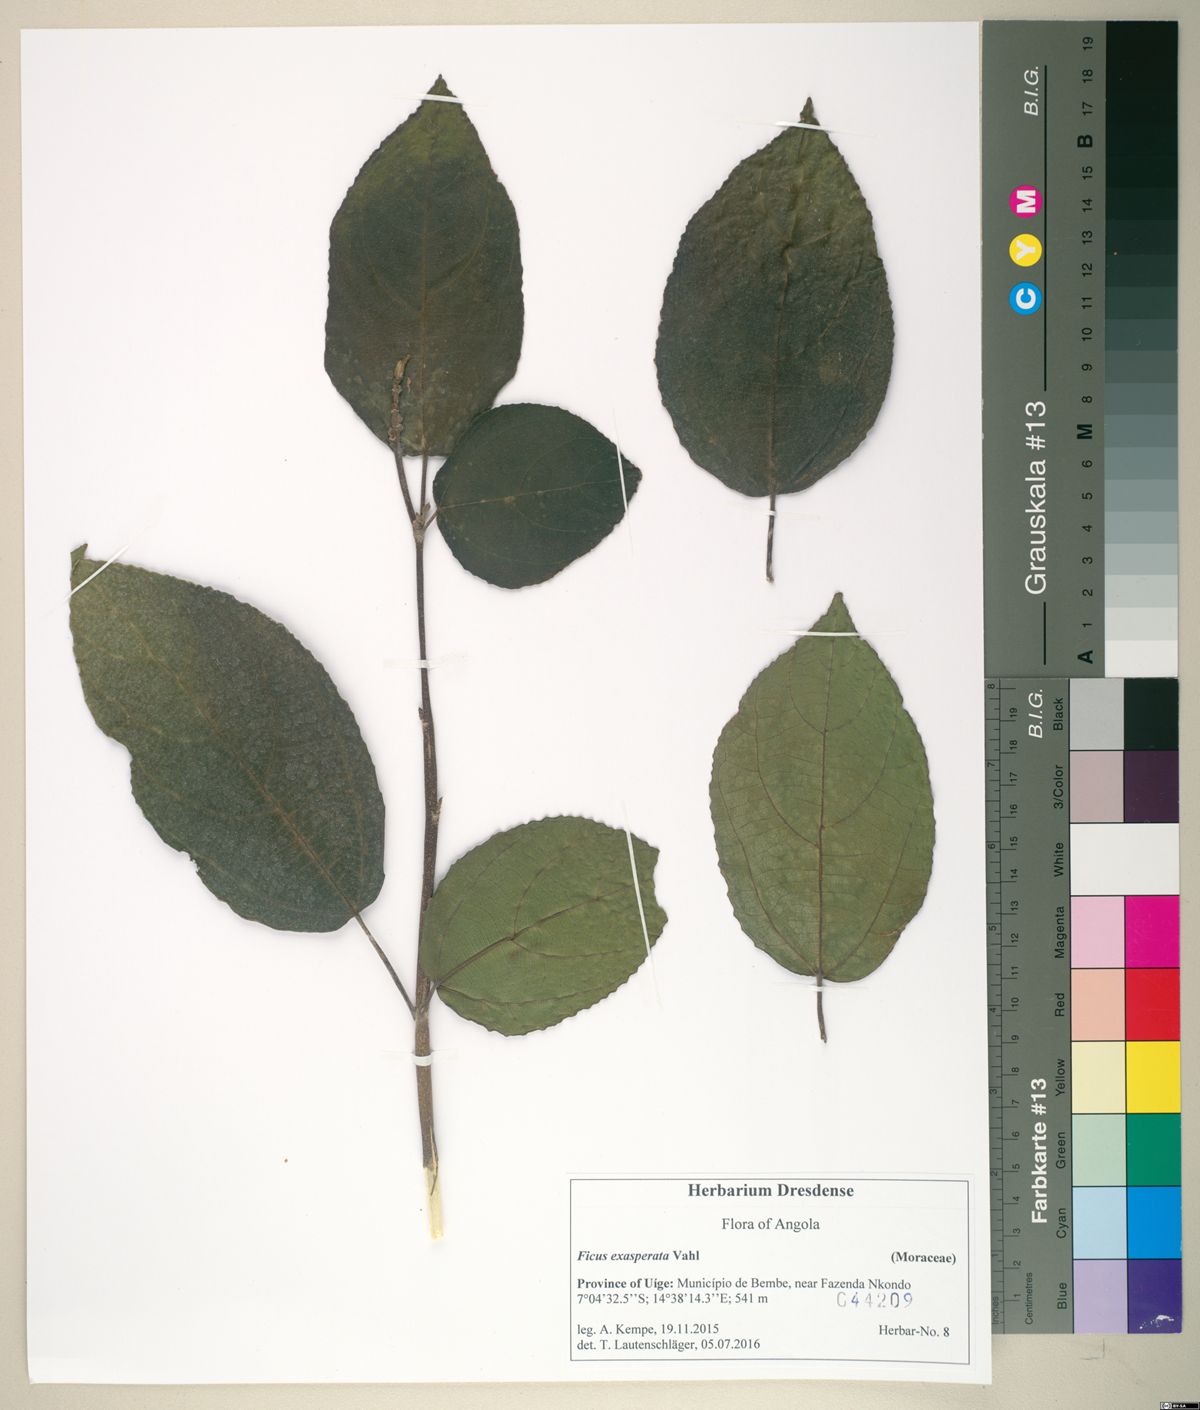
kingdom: Plantae
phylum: Tracheophyta
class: Magnoliopsida
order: Rosales
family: Moraceae
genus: Ficus
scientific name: Ficus exasperata
